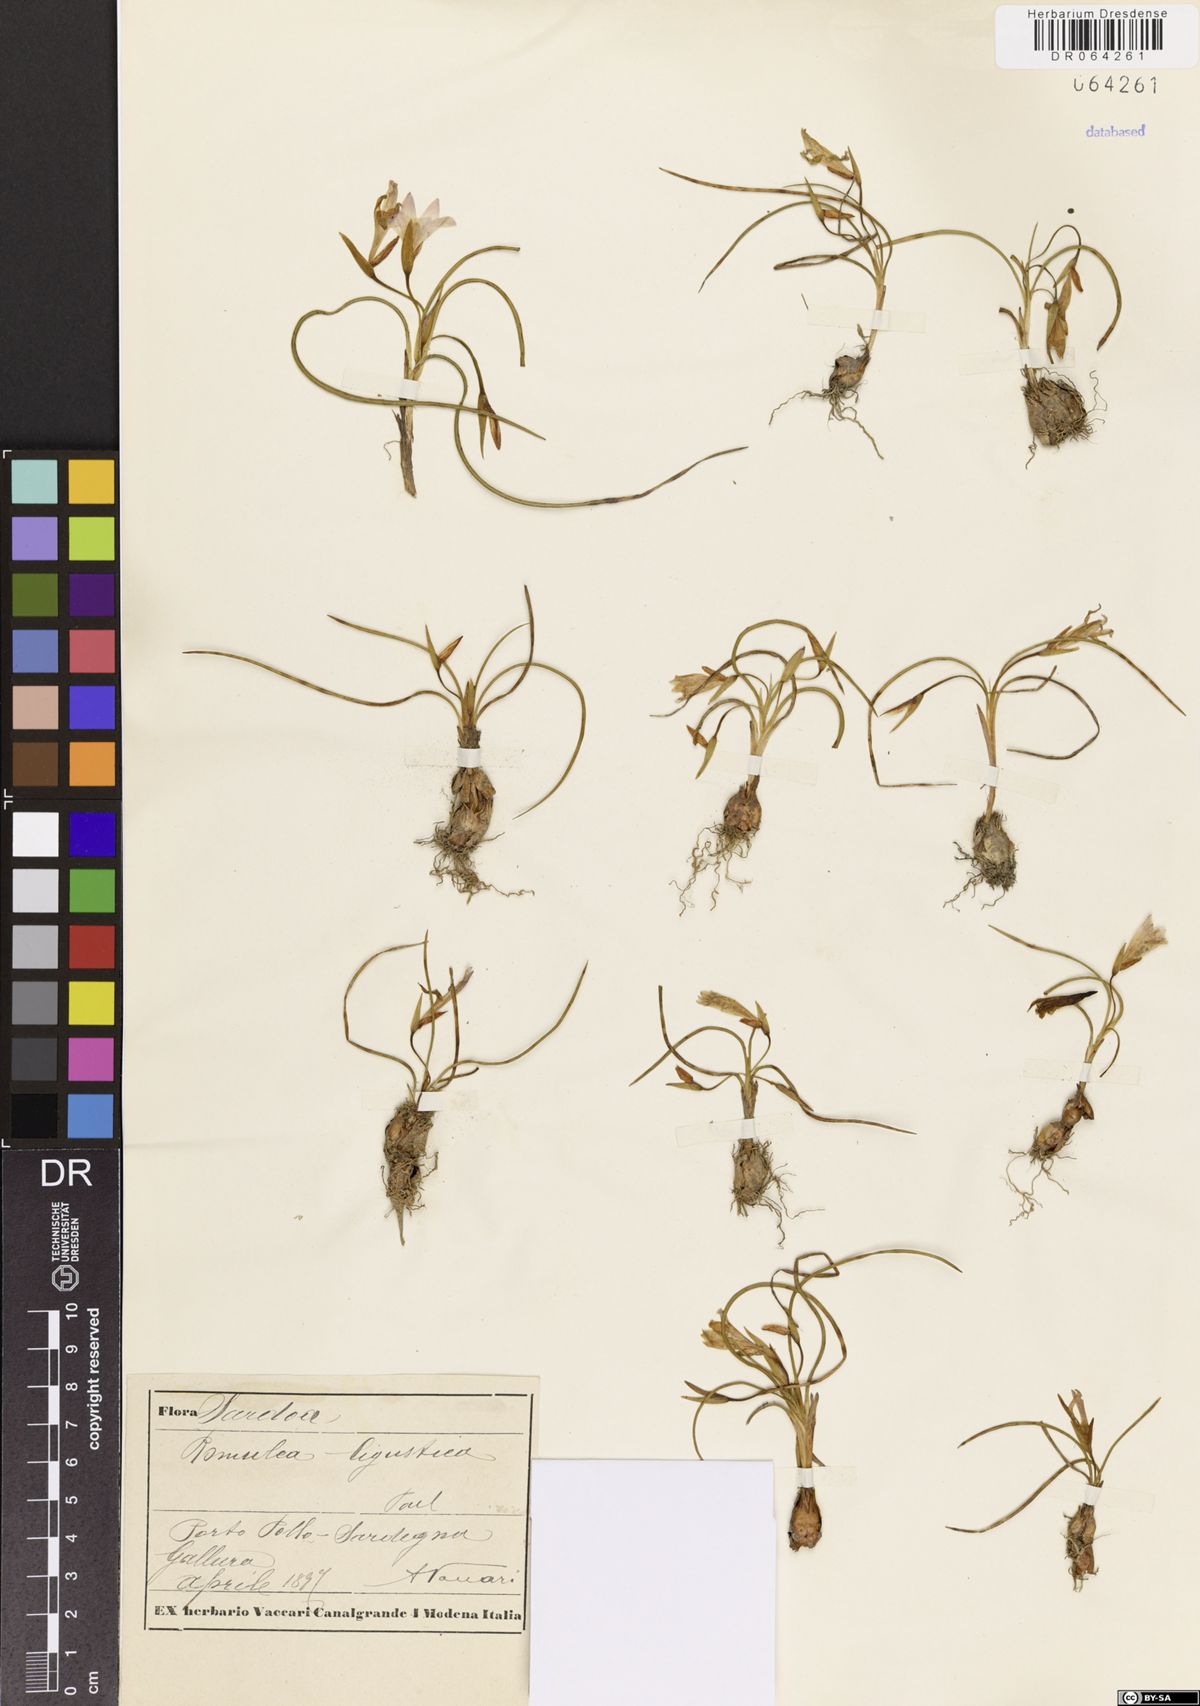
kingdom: Plantae
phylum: Tracheophyta
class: Liliopsida
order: Asparagales
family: Iridaceae
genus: Romulea
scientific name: Romulea ligustica
